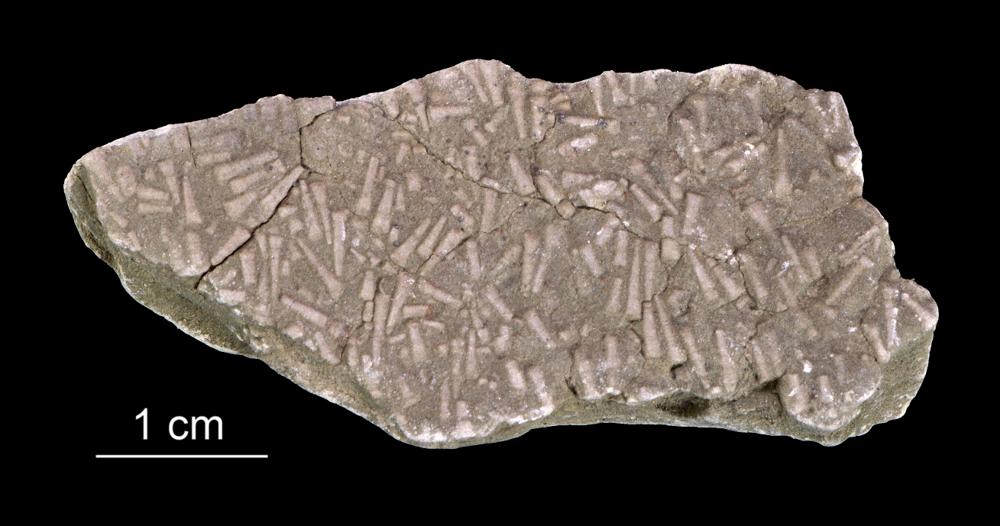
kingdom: Animalia
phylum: Annelida
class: Polychaeta
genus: Volborthella
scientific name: Volborthella tenuis
